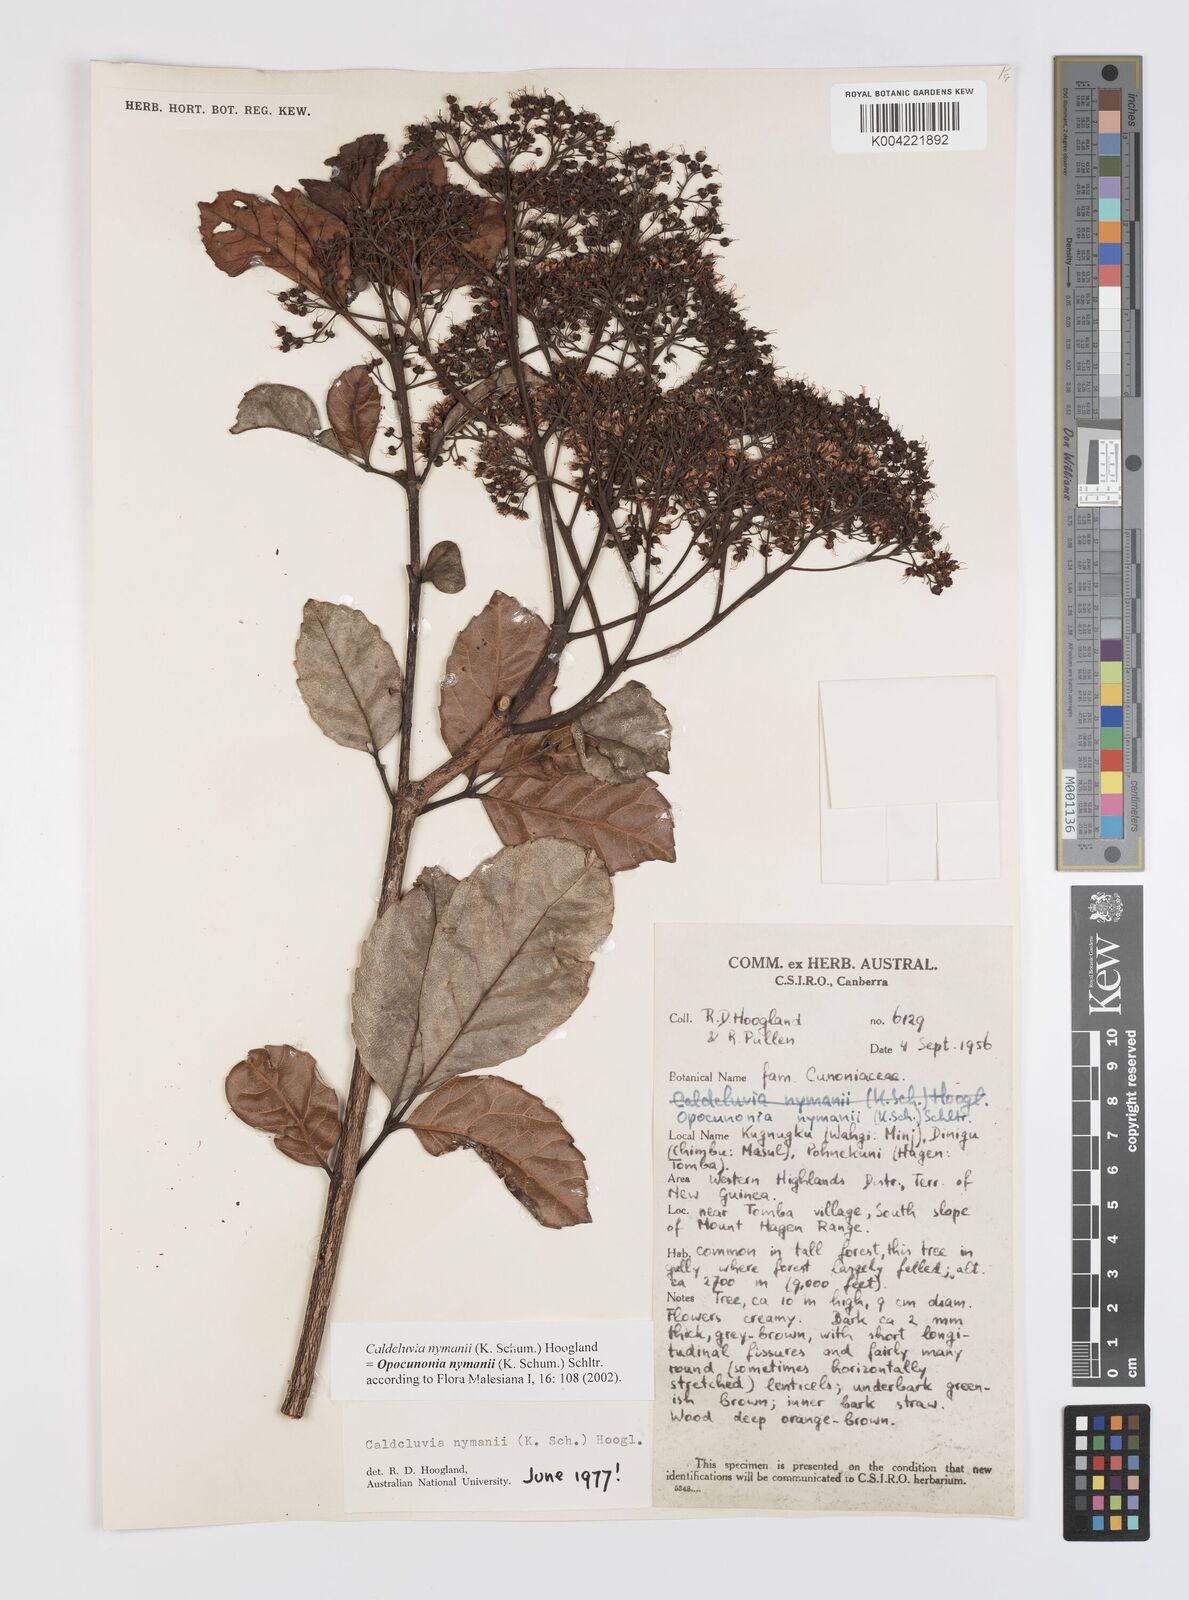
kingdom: Plantae
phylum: Tracheophyta
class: Magnoliopsida
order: Oxalidales
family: Cunoniaceae
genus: Opocunonia
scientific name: Opocunonia nymanii
